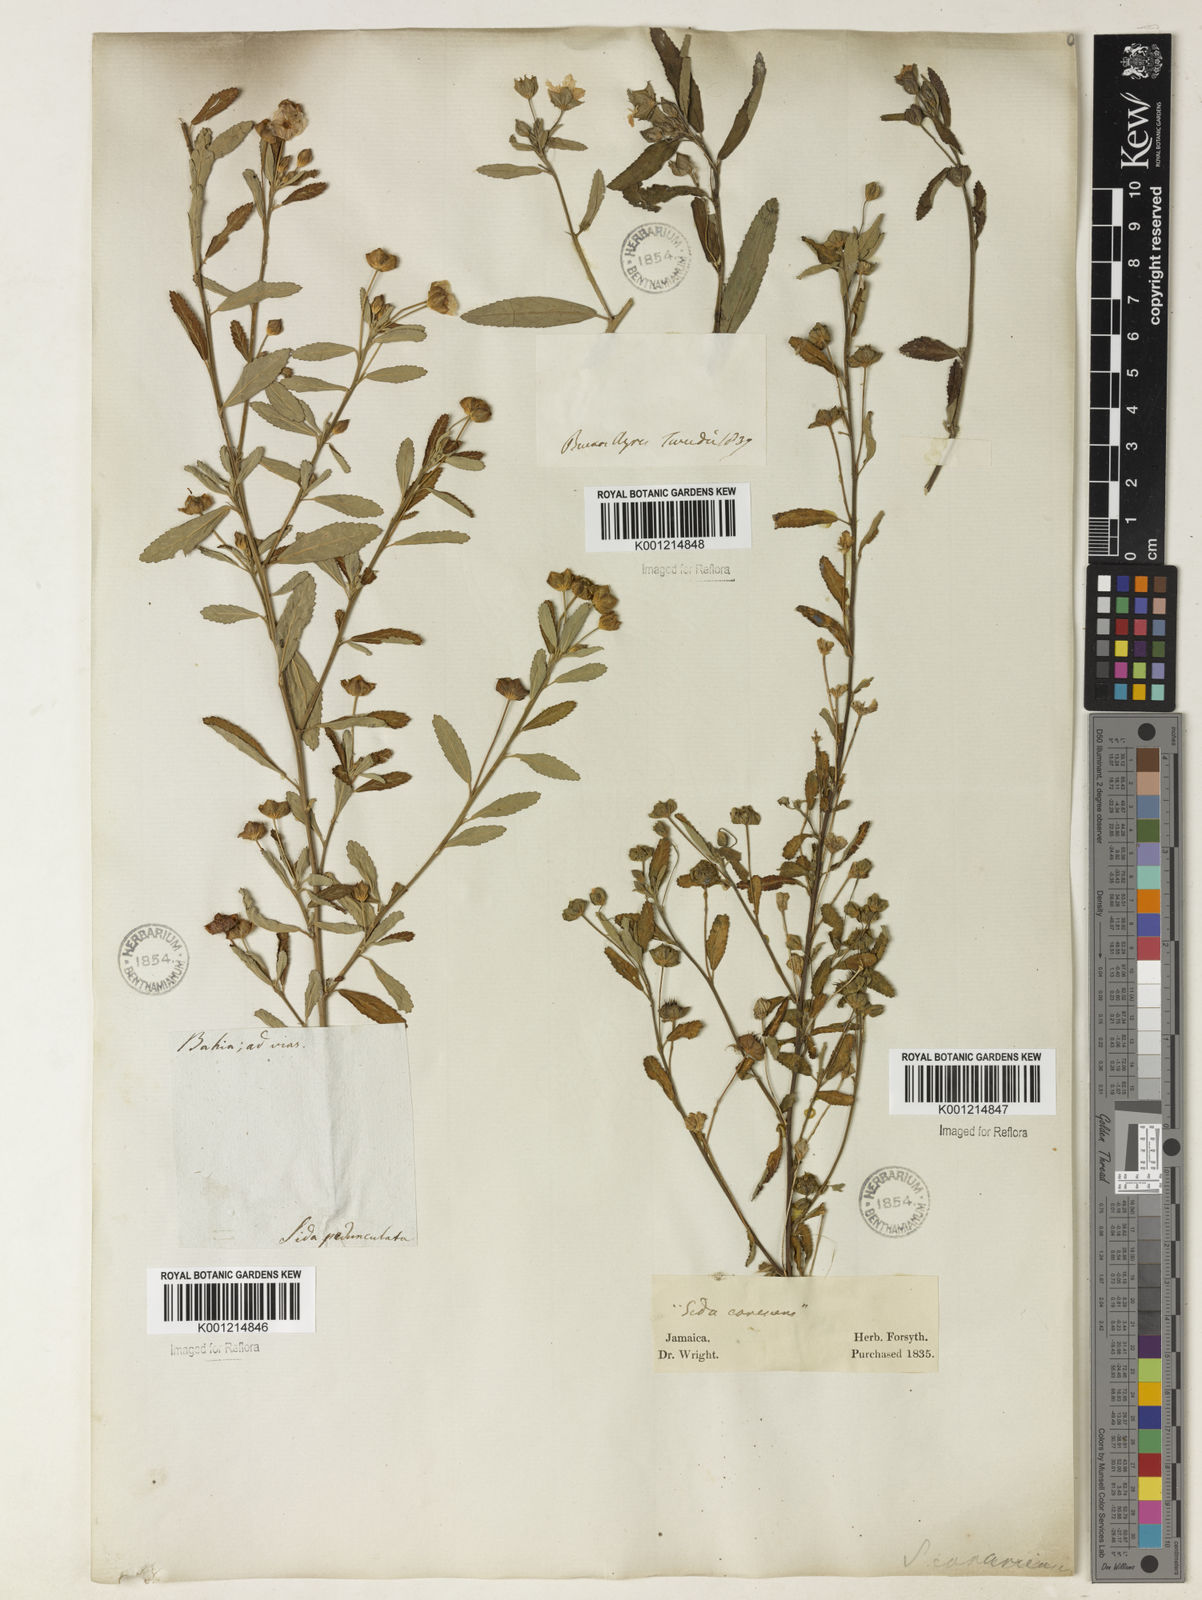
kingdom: Plantae
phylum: Tracheophyta
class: Magnoliopsida
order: Malvales
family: Malvaceae
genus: Sida
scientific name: Sida rhombifolia
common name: Queensland-hemp
